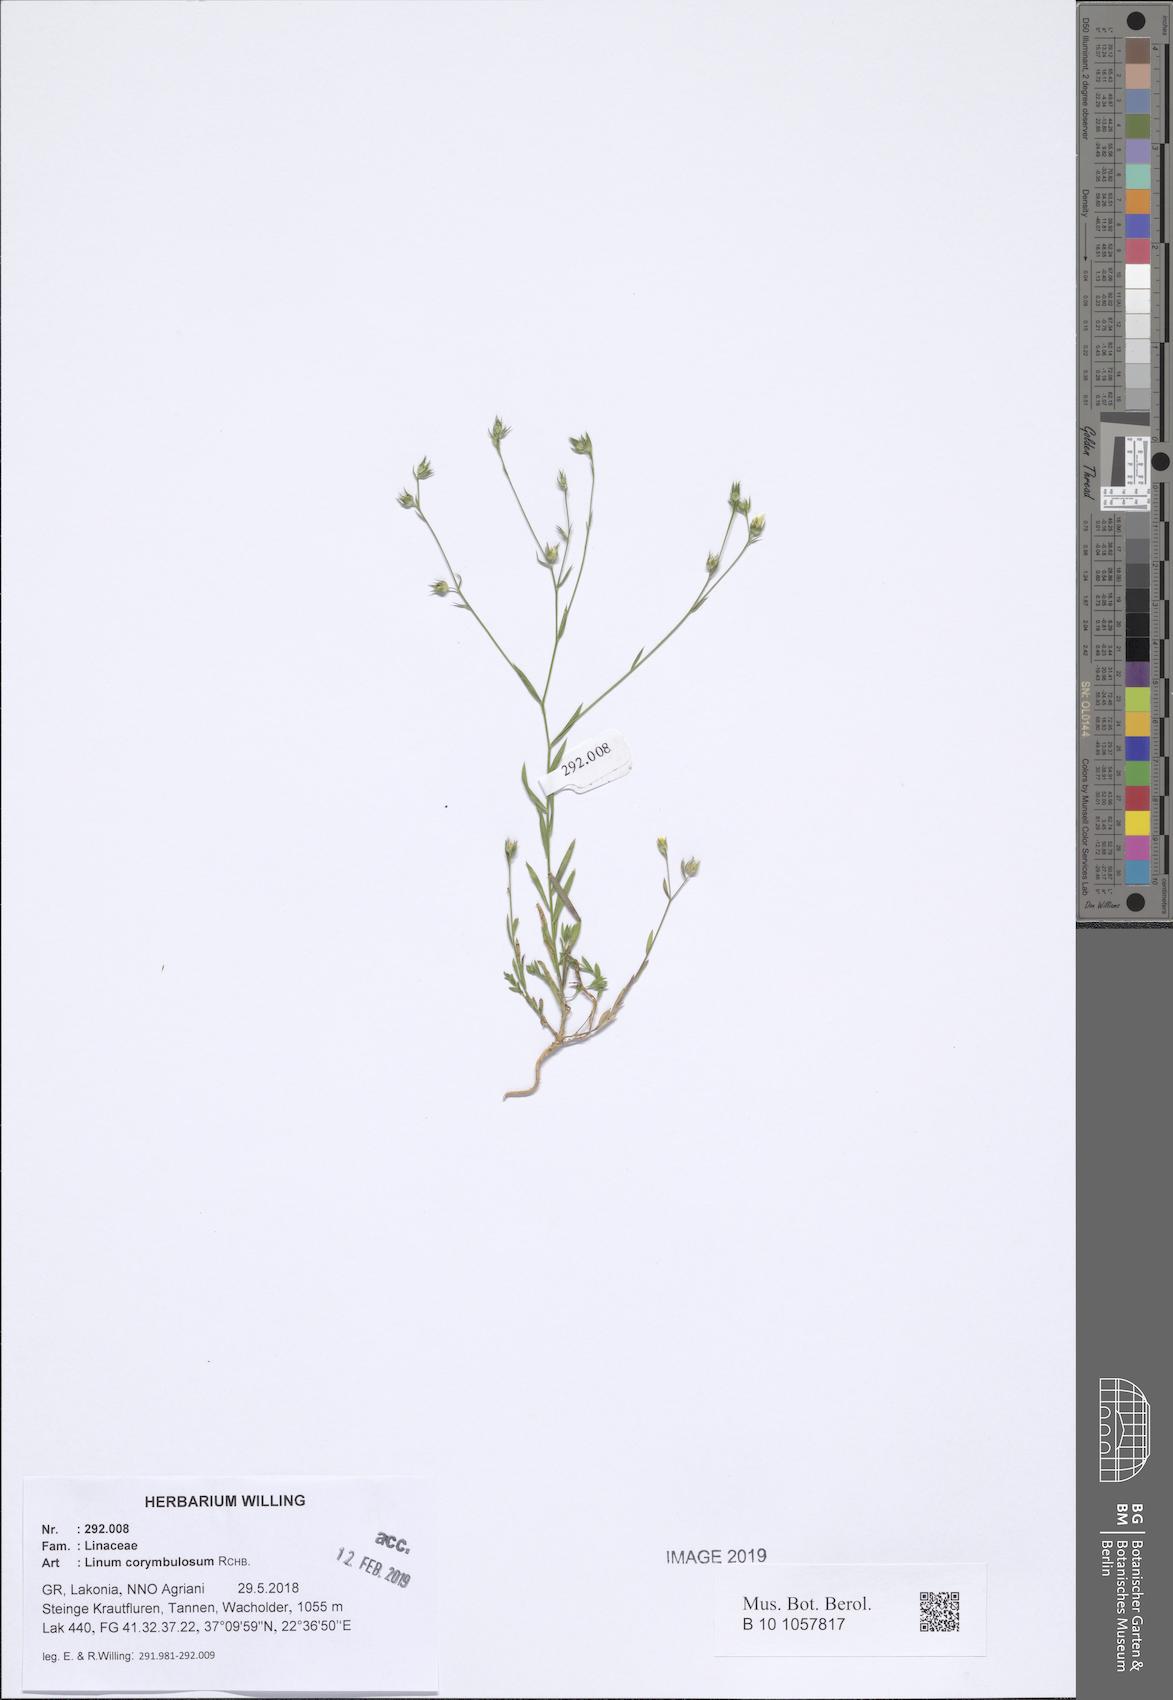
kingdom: Plantae
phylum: Tracheophyta
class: Magnoliopsida
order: Malpighiales
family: Linaceae
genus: Linum
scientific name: Linum corymbulosum
